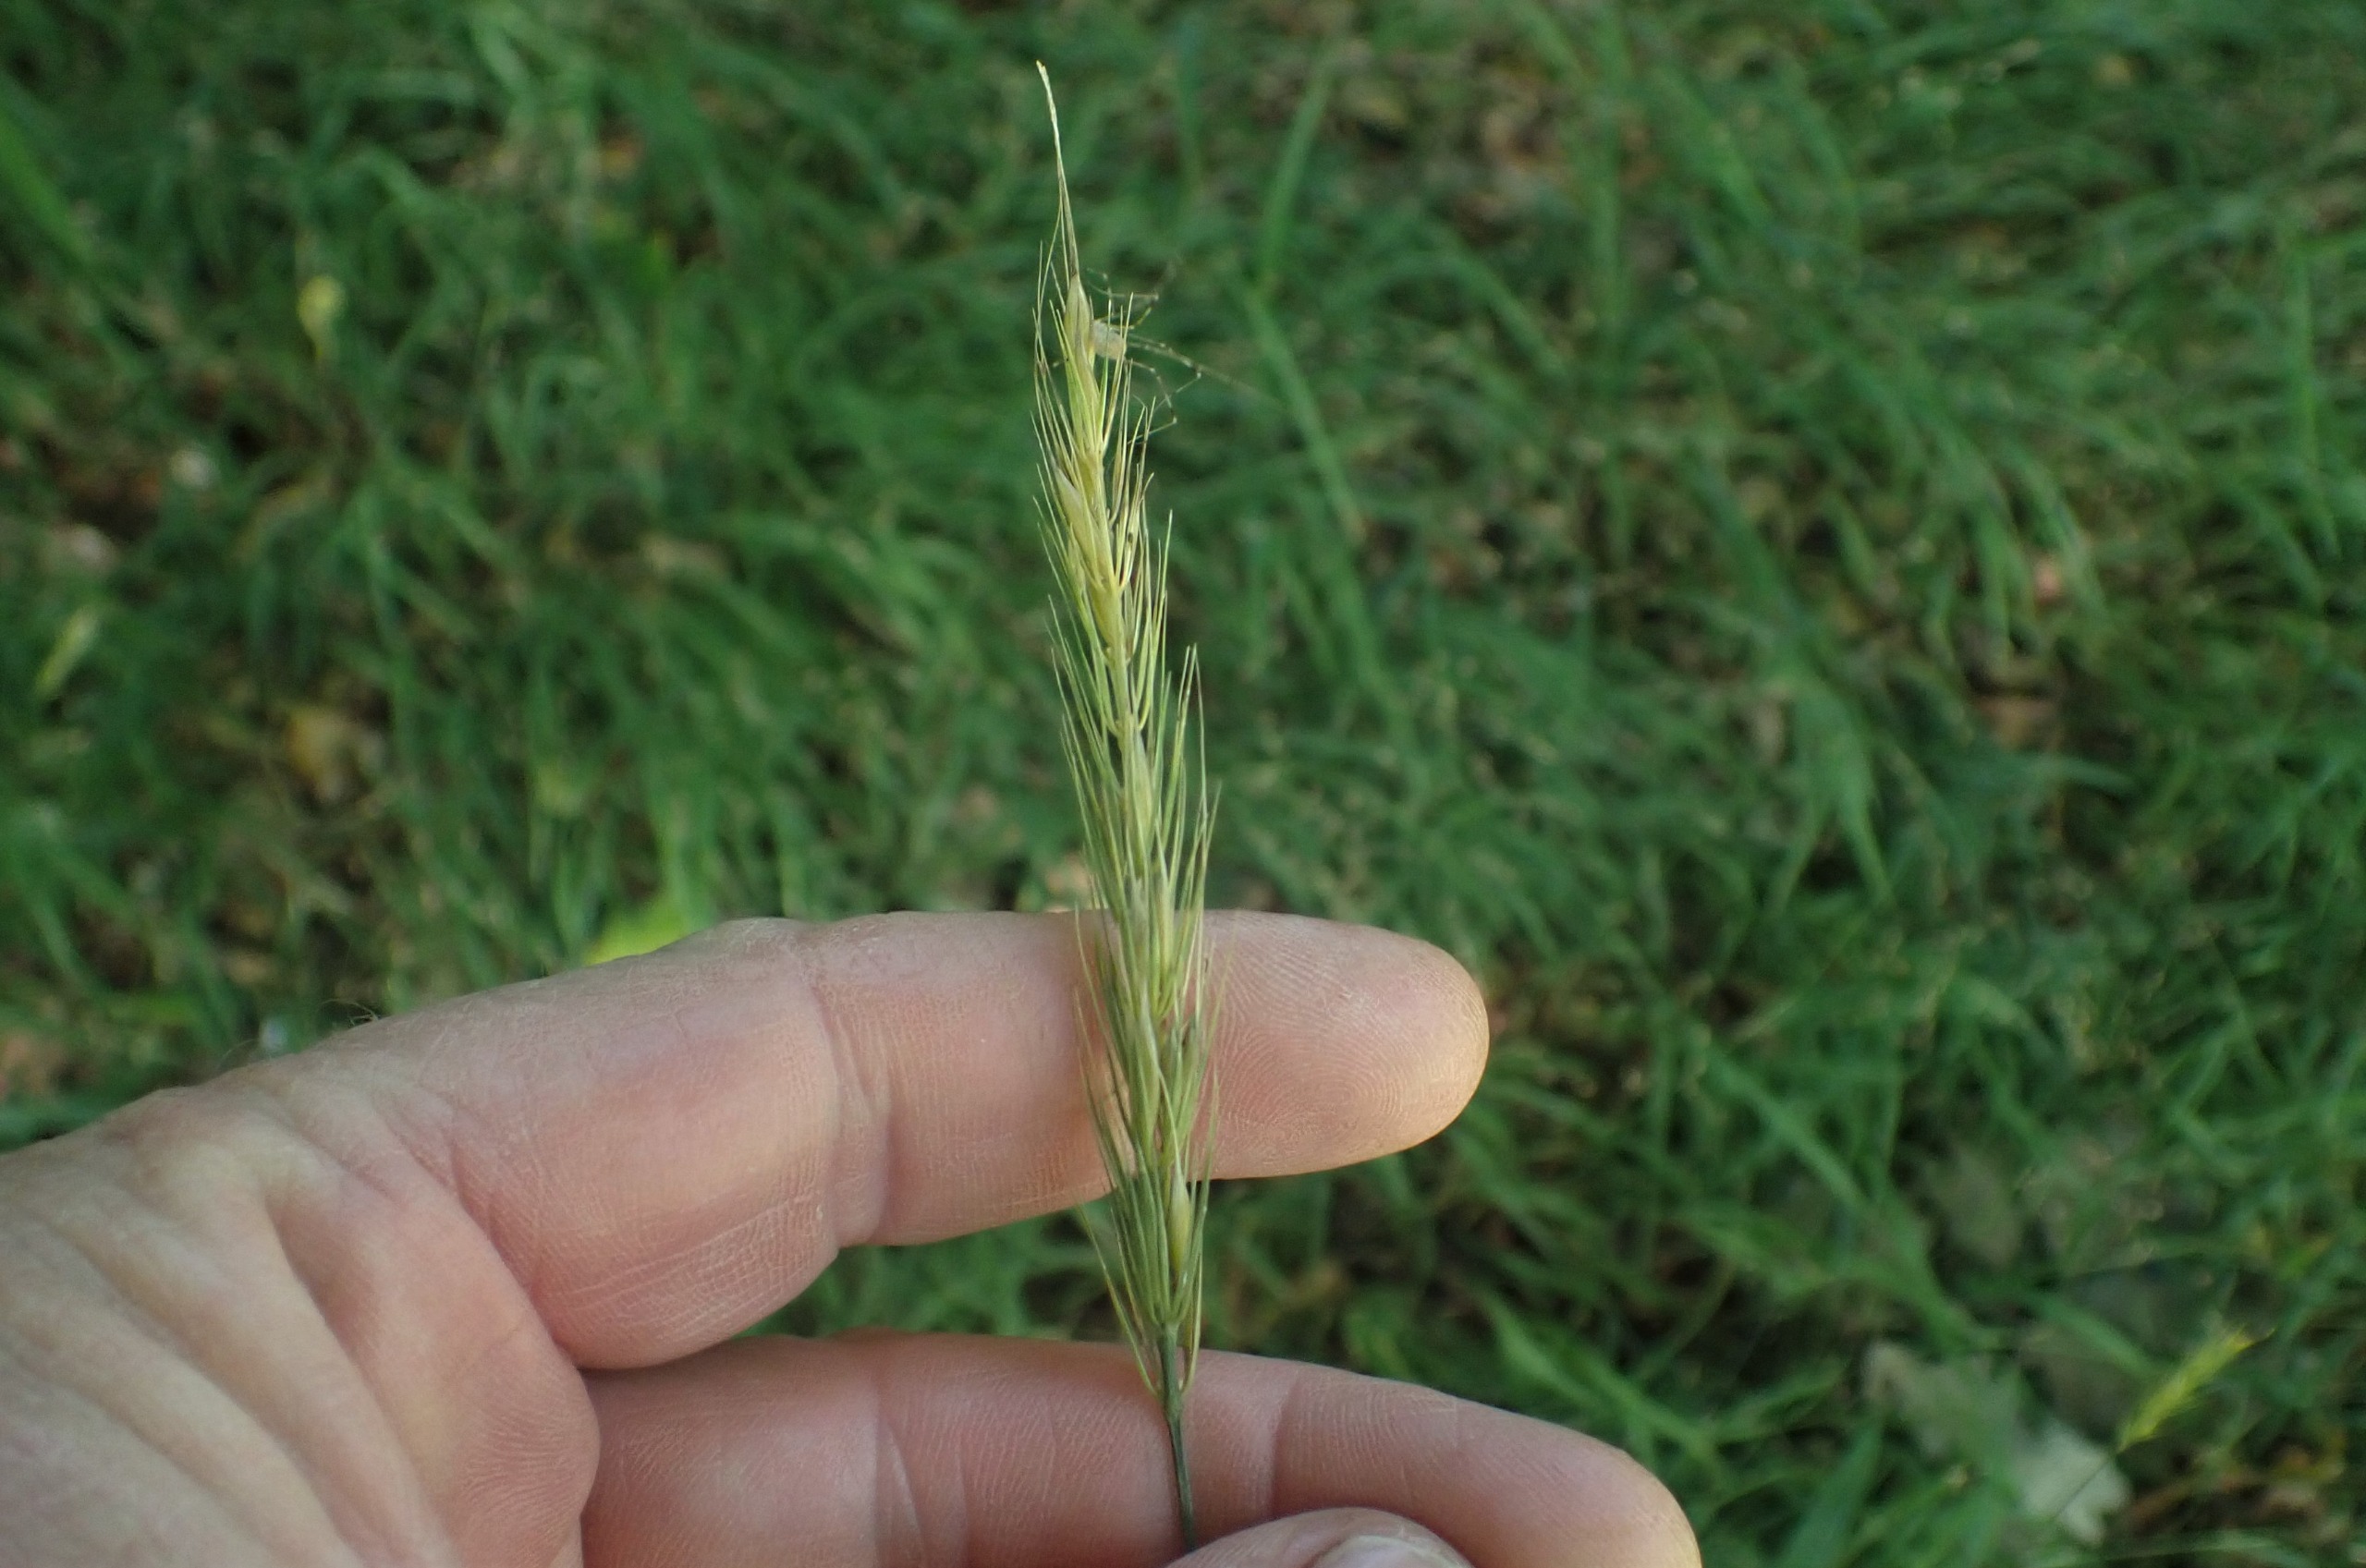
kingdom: Plantae
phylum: Tracheophyta
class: Liliopsida
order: Poales
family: Poaceae
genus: Hordelymus
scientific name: Hordelymus europaeus
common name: Skovbyg
